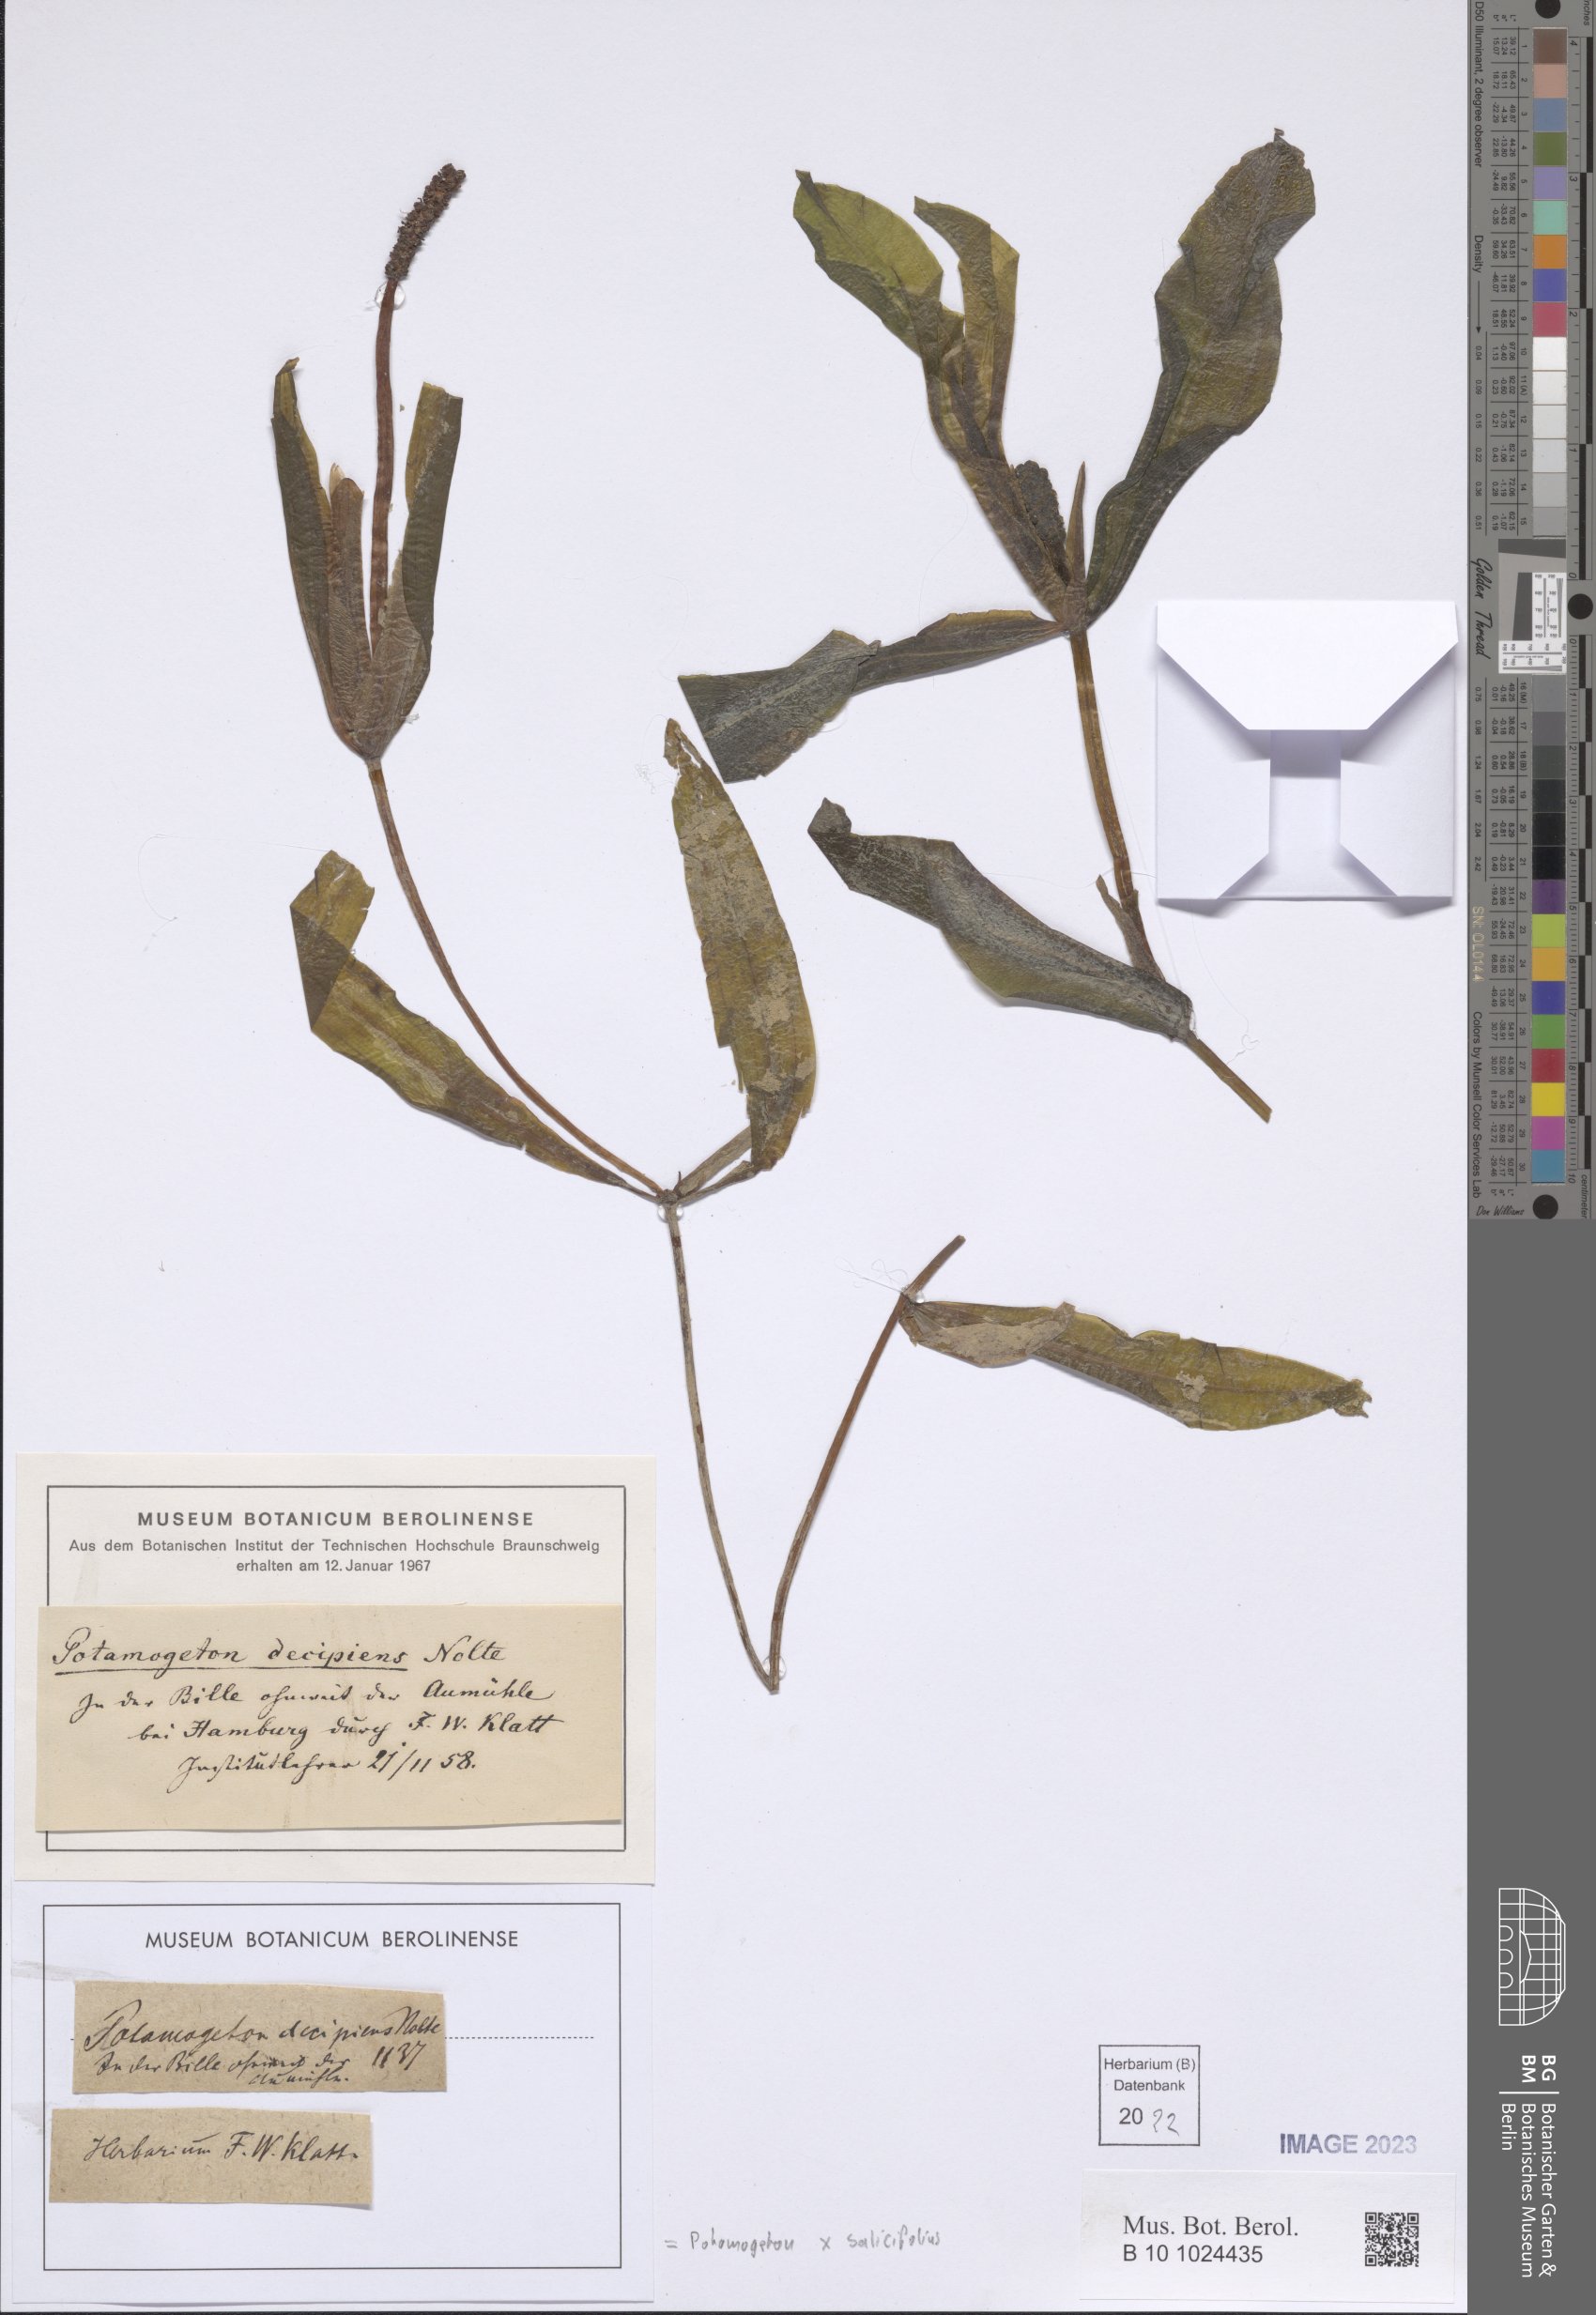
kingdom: Plantae
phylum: Tracheophyta
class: Liliopsida
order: Alismatales
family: Potamogetonaceae
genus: Potamogeton
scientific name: Potamogeton salicifolius
